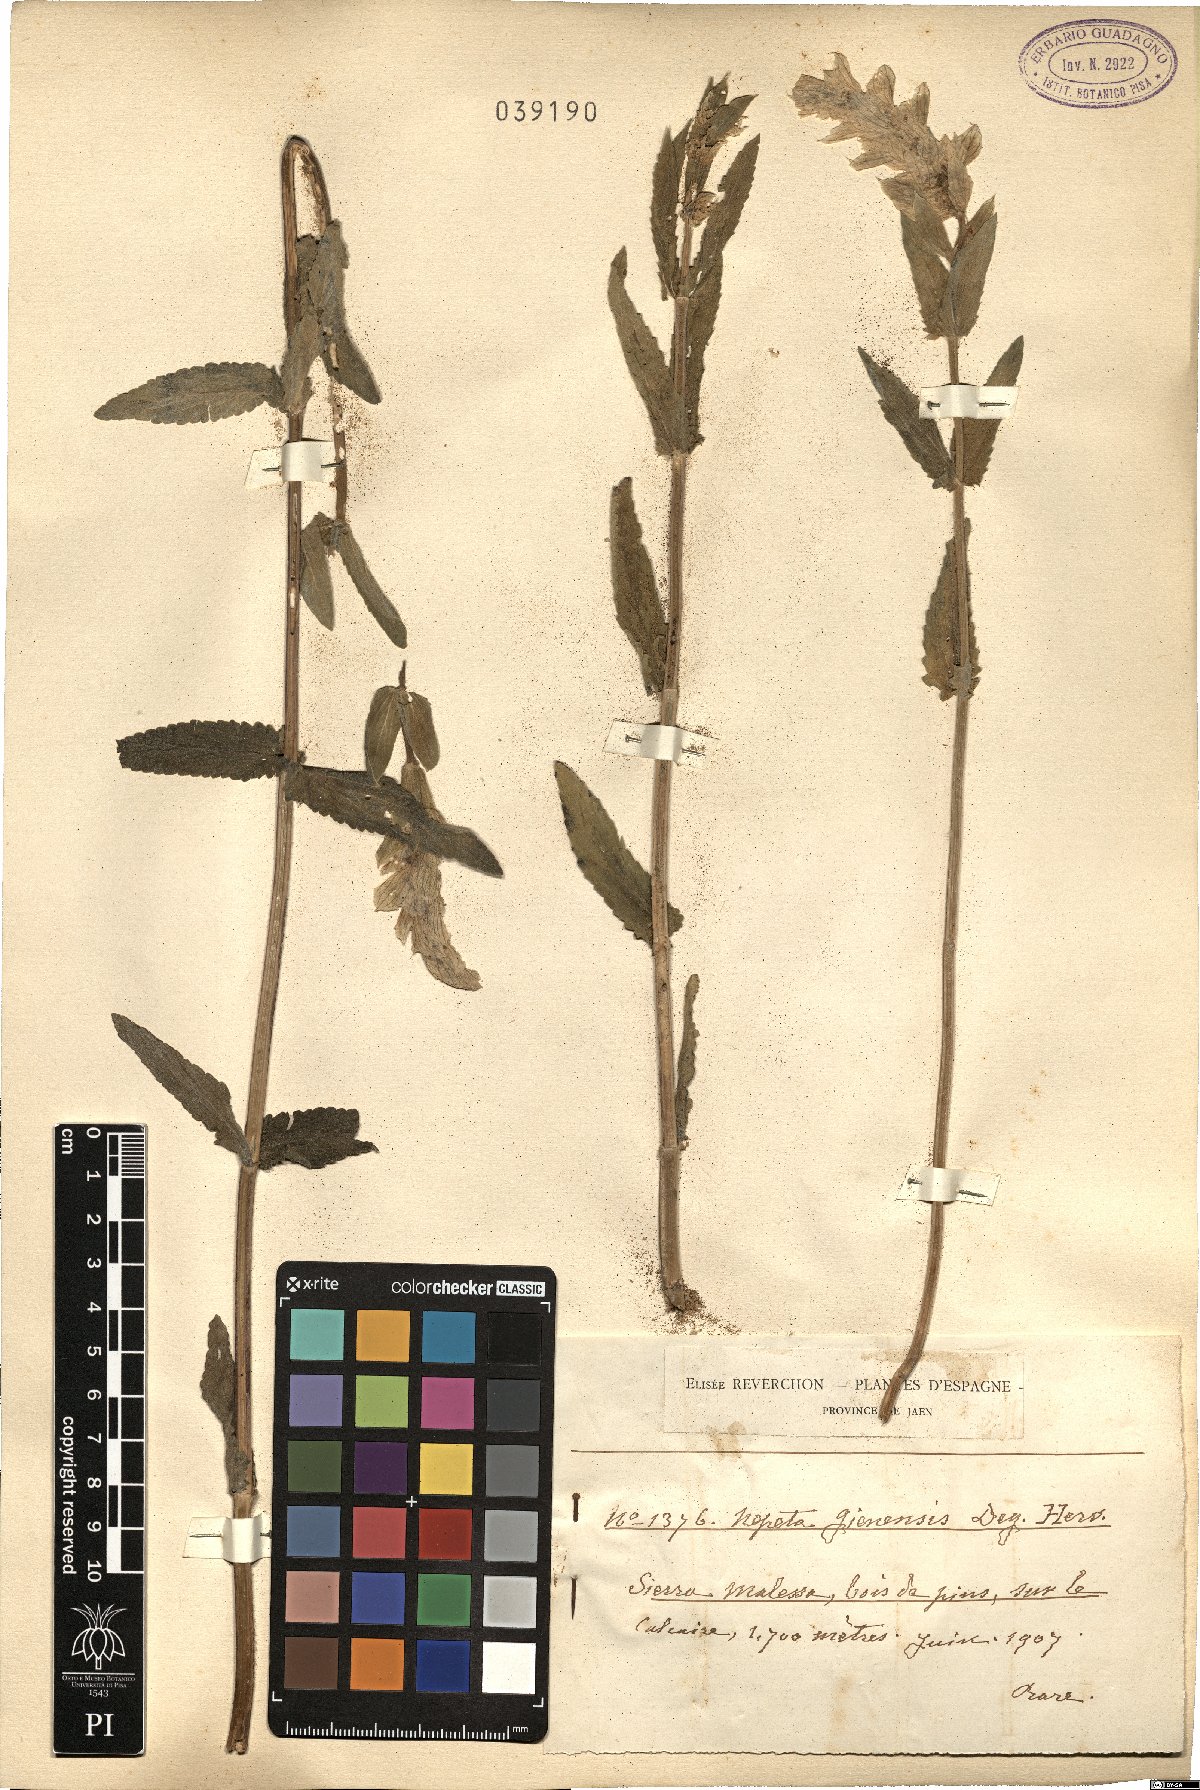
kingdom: Plantae
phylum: Tracheophyta
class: Magnoliopsida
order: Lamiales
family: Lamiaceae
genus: Nepeta
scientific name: Nepeta tuberosa
